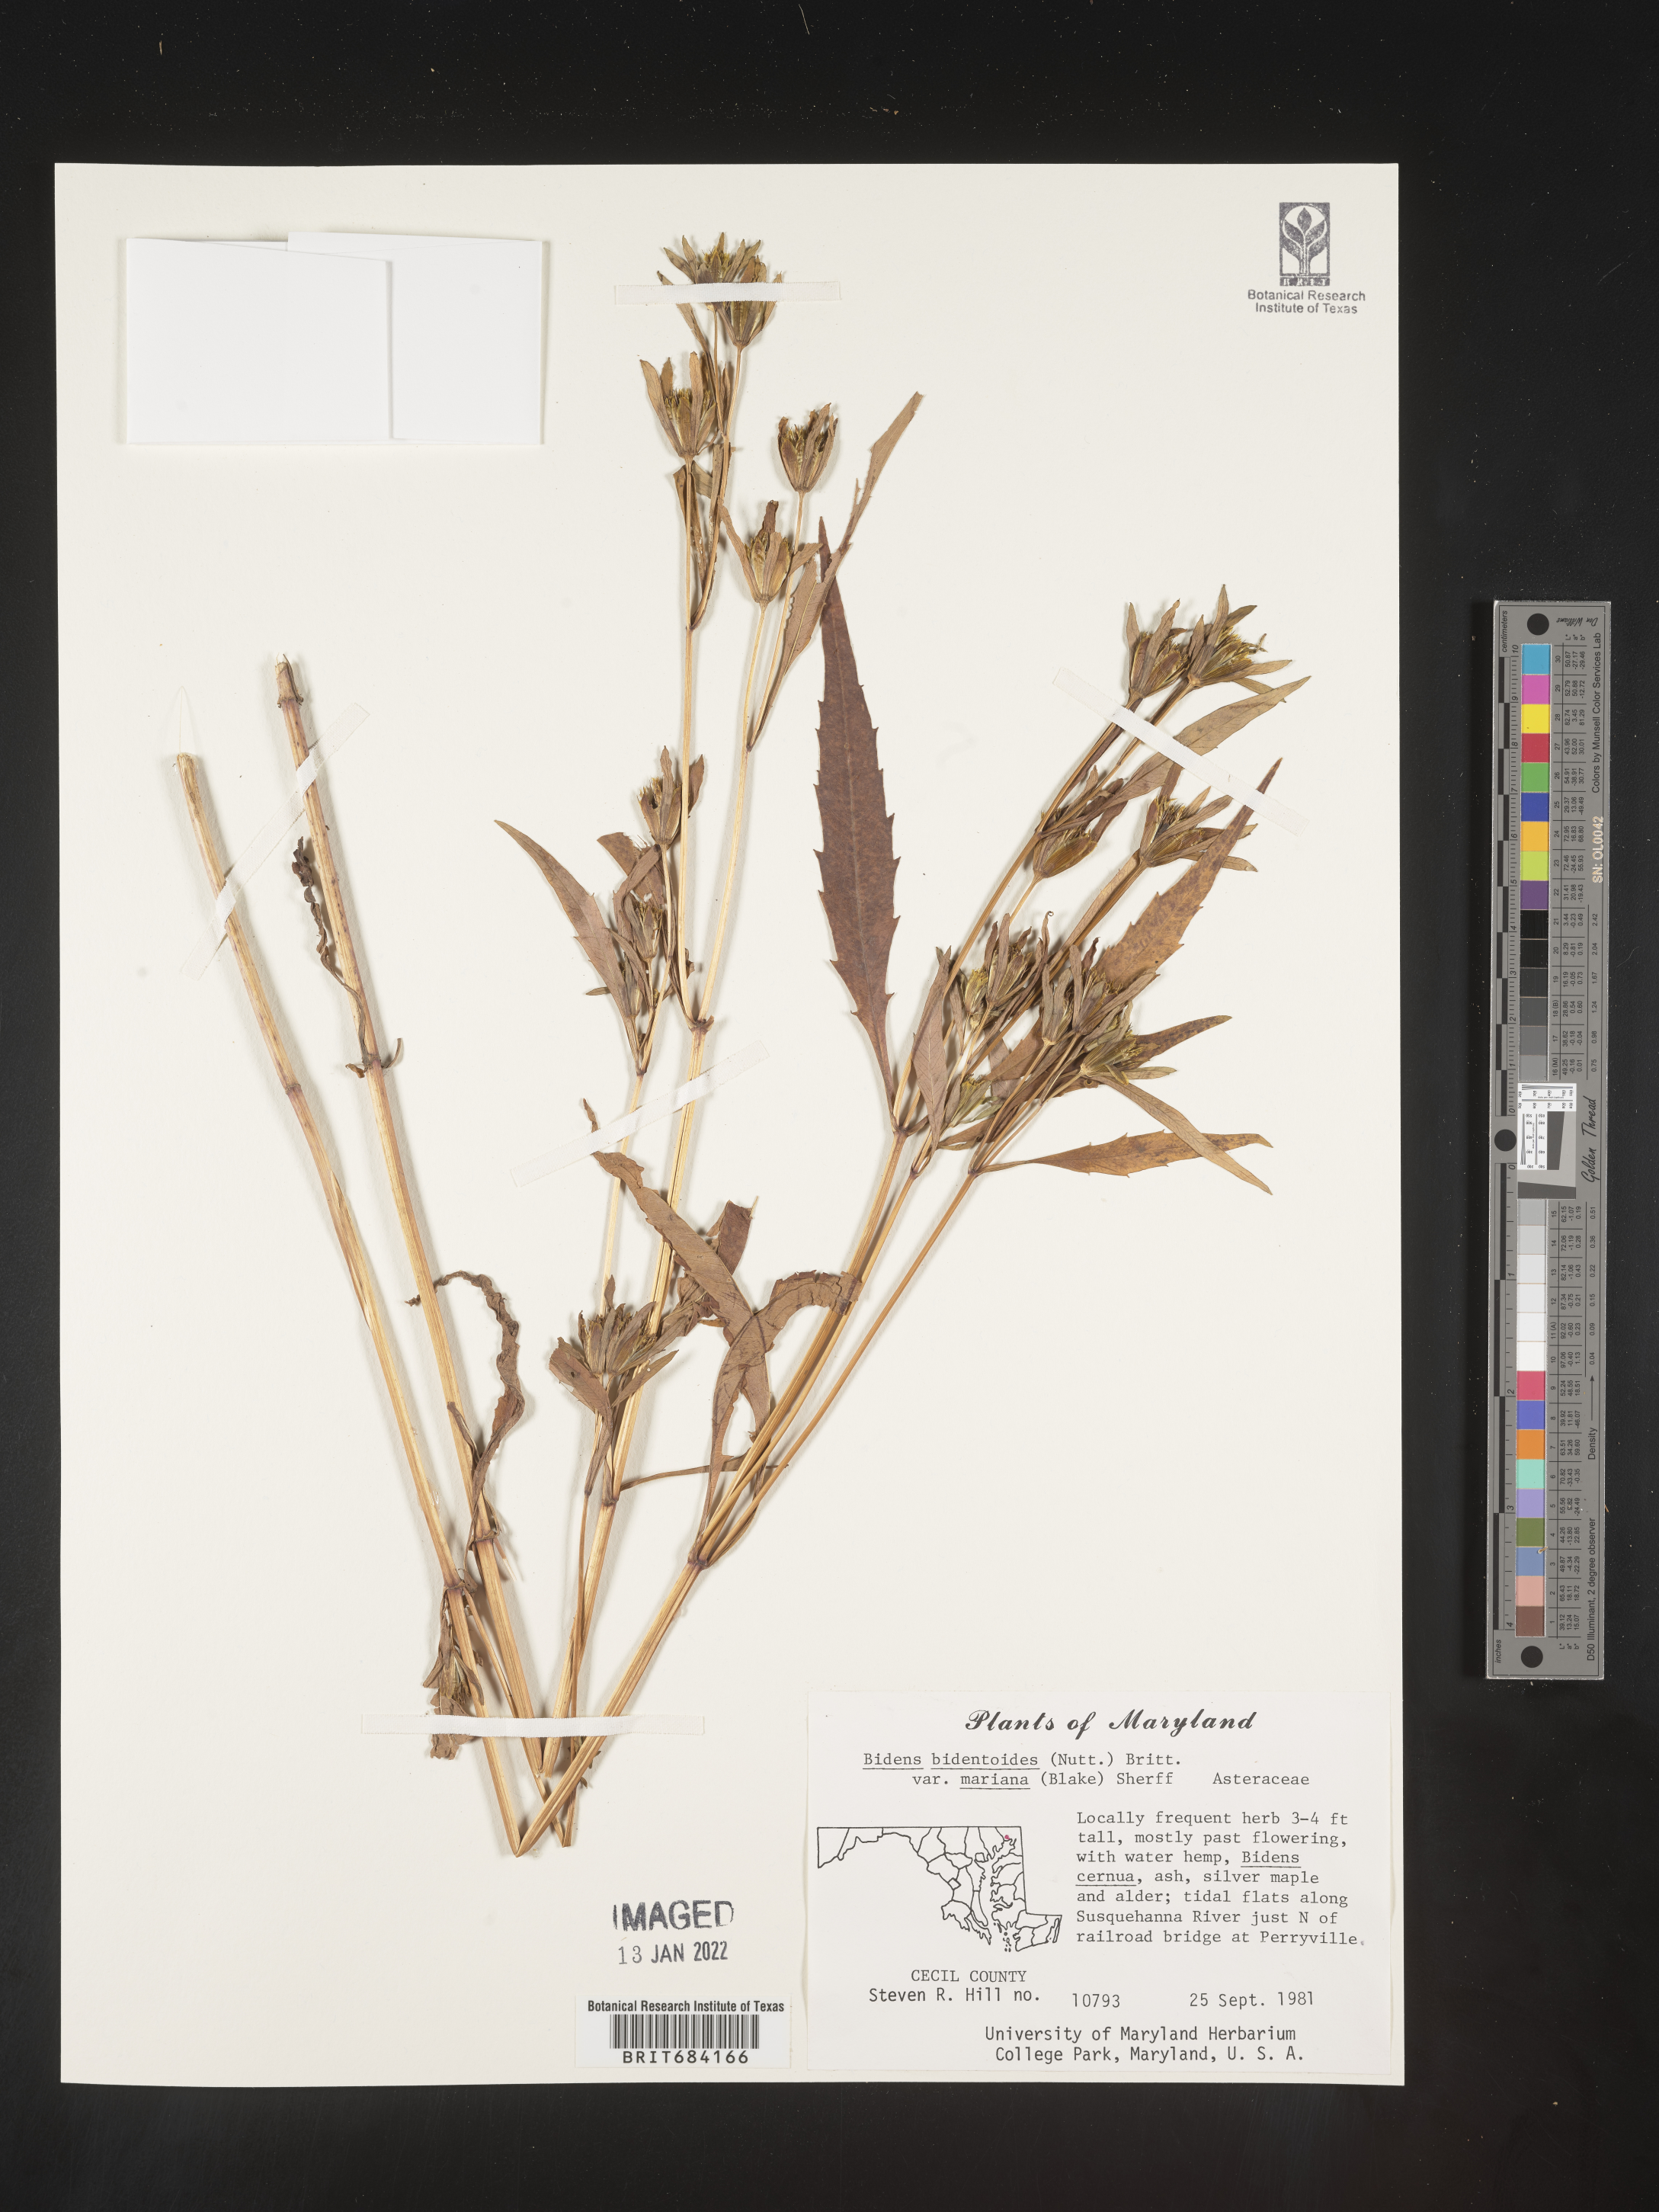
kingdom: Plantae
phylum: Tracheophyta
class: Magnoliopsida
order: Asterales
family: Asteraceae
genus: Bidens
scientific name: Bidens bidentoides
